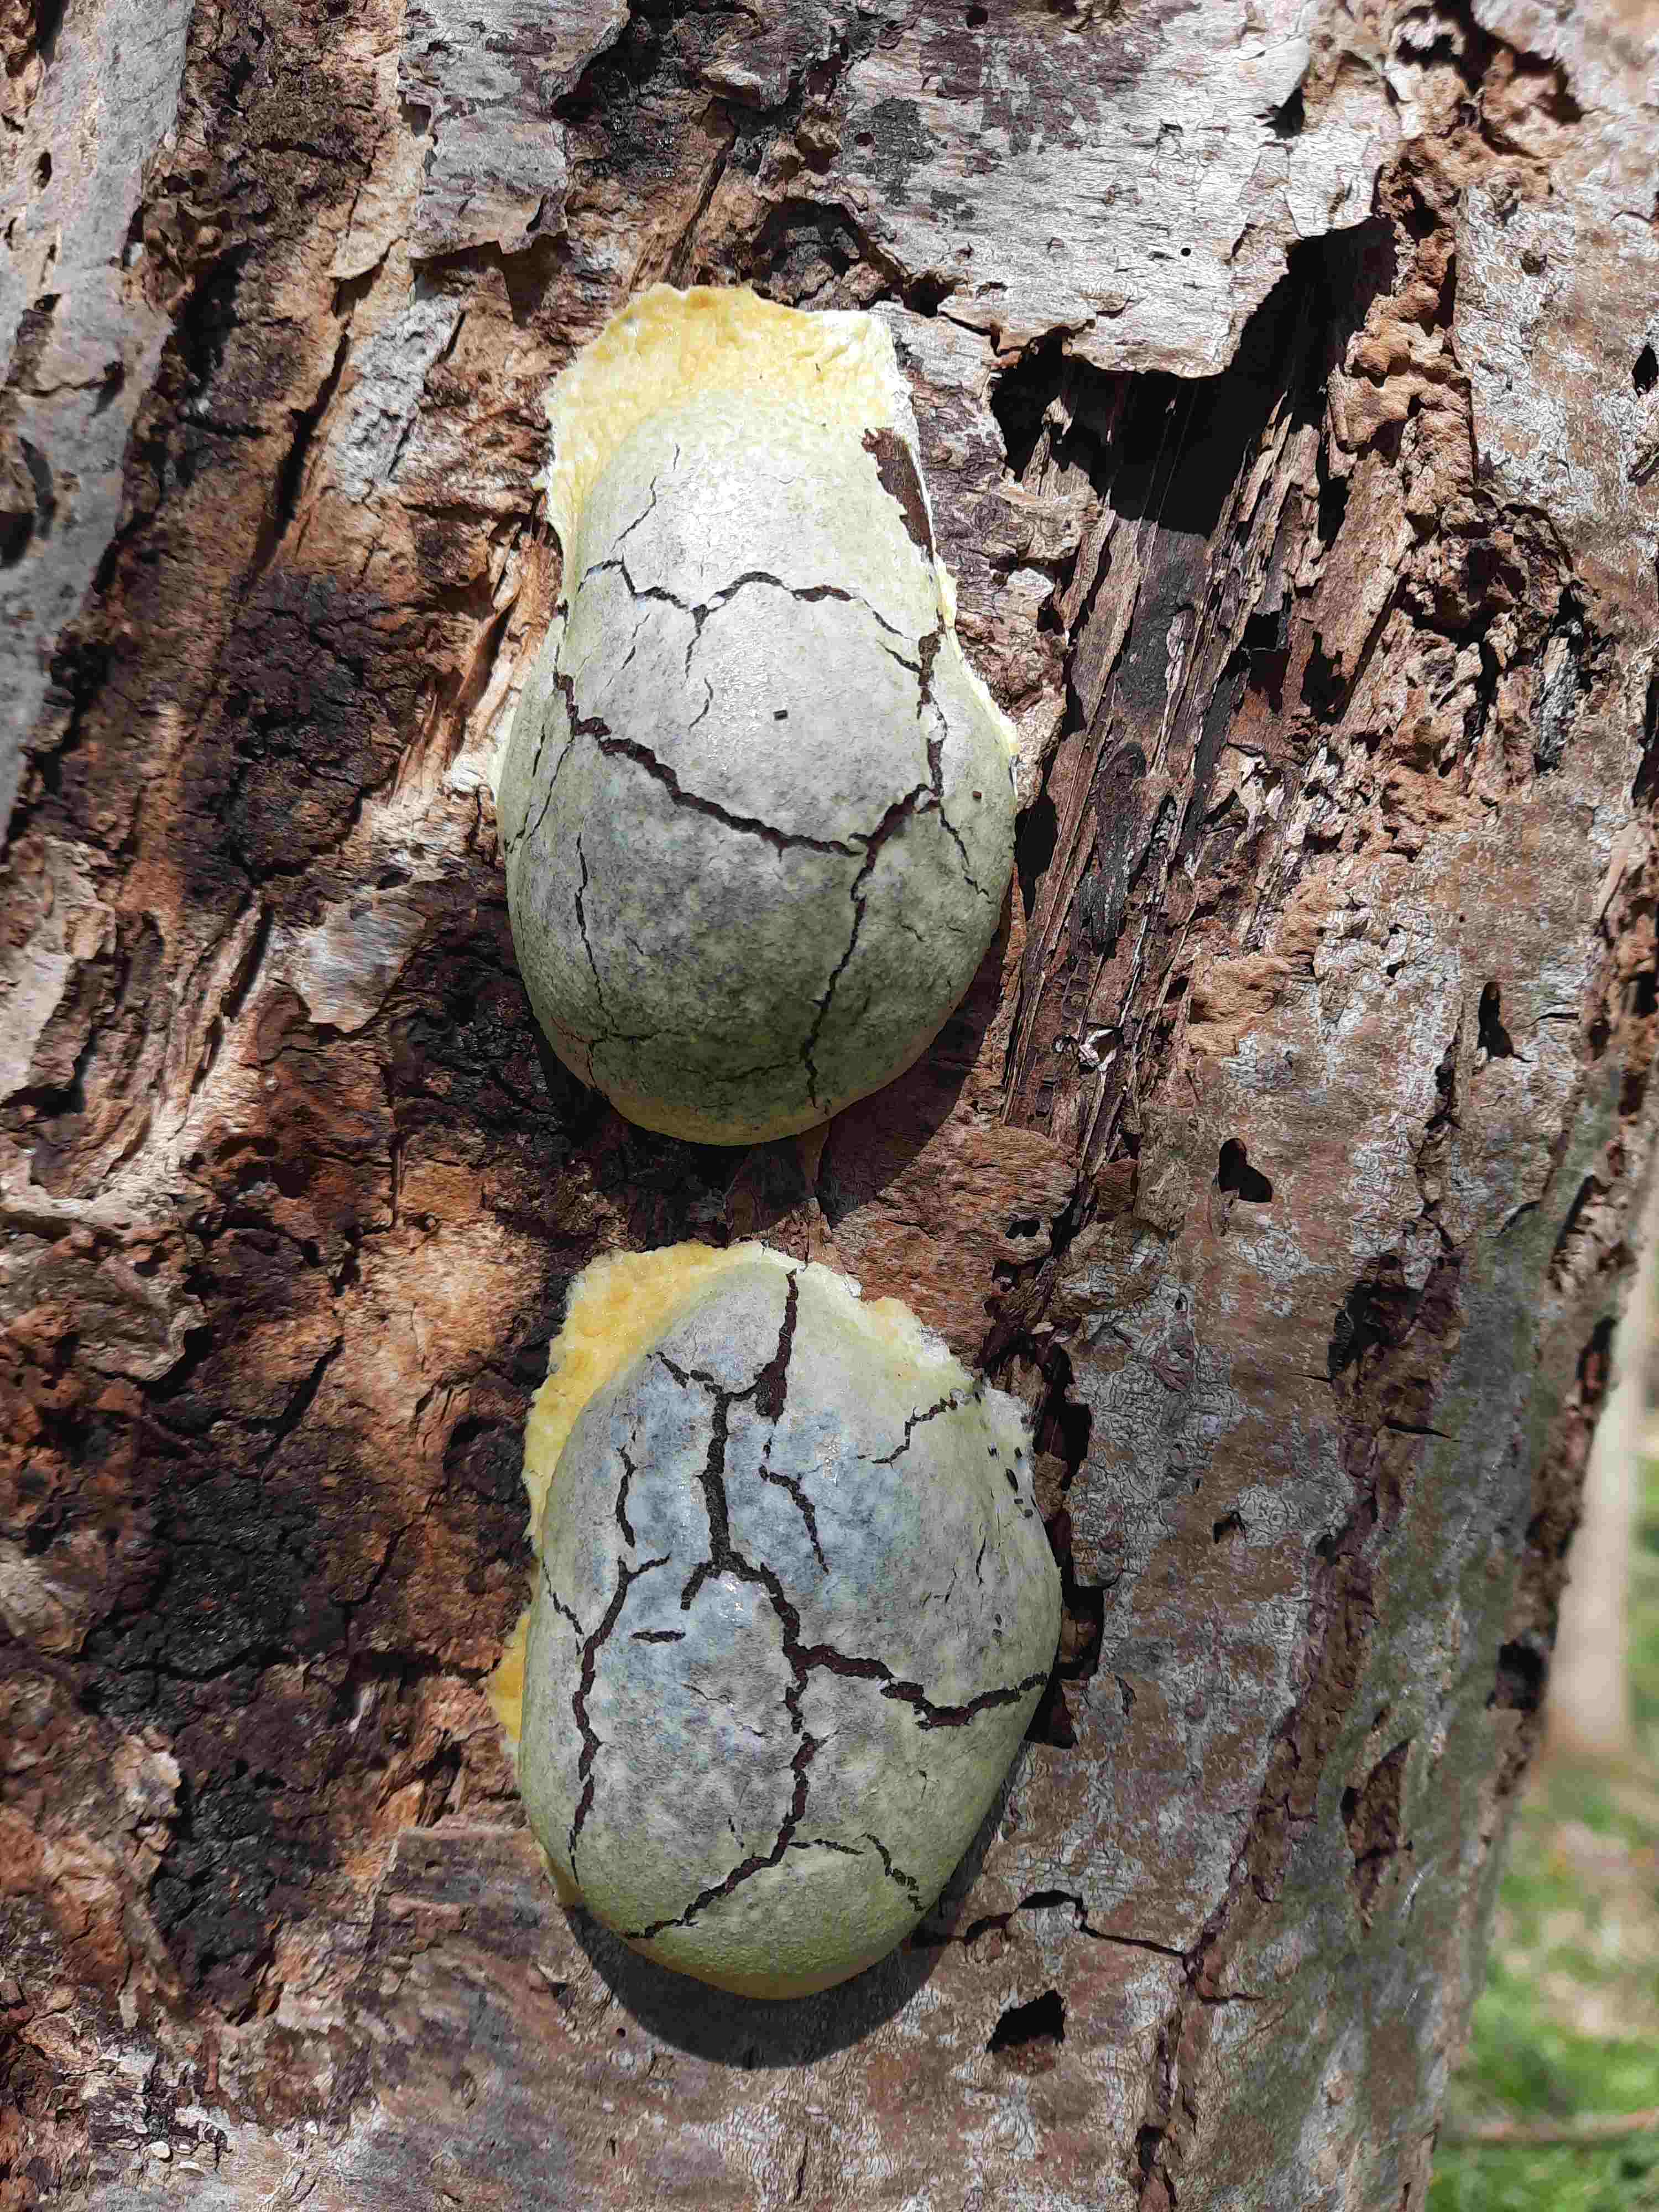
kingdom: Protozoa
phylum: Mycetozoa
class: Myxomycetes
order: Cribrariales
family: Tubiferaceae
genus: Reticularia
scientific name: Reticularia lycoperdon
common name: skinnende støvpude
